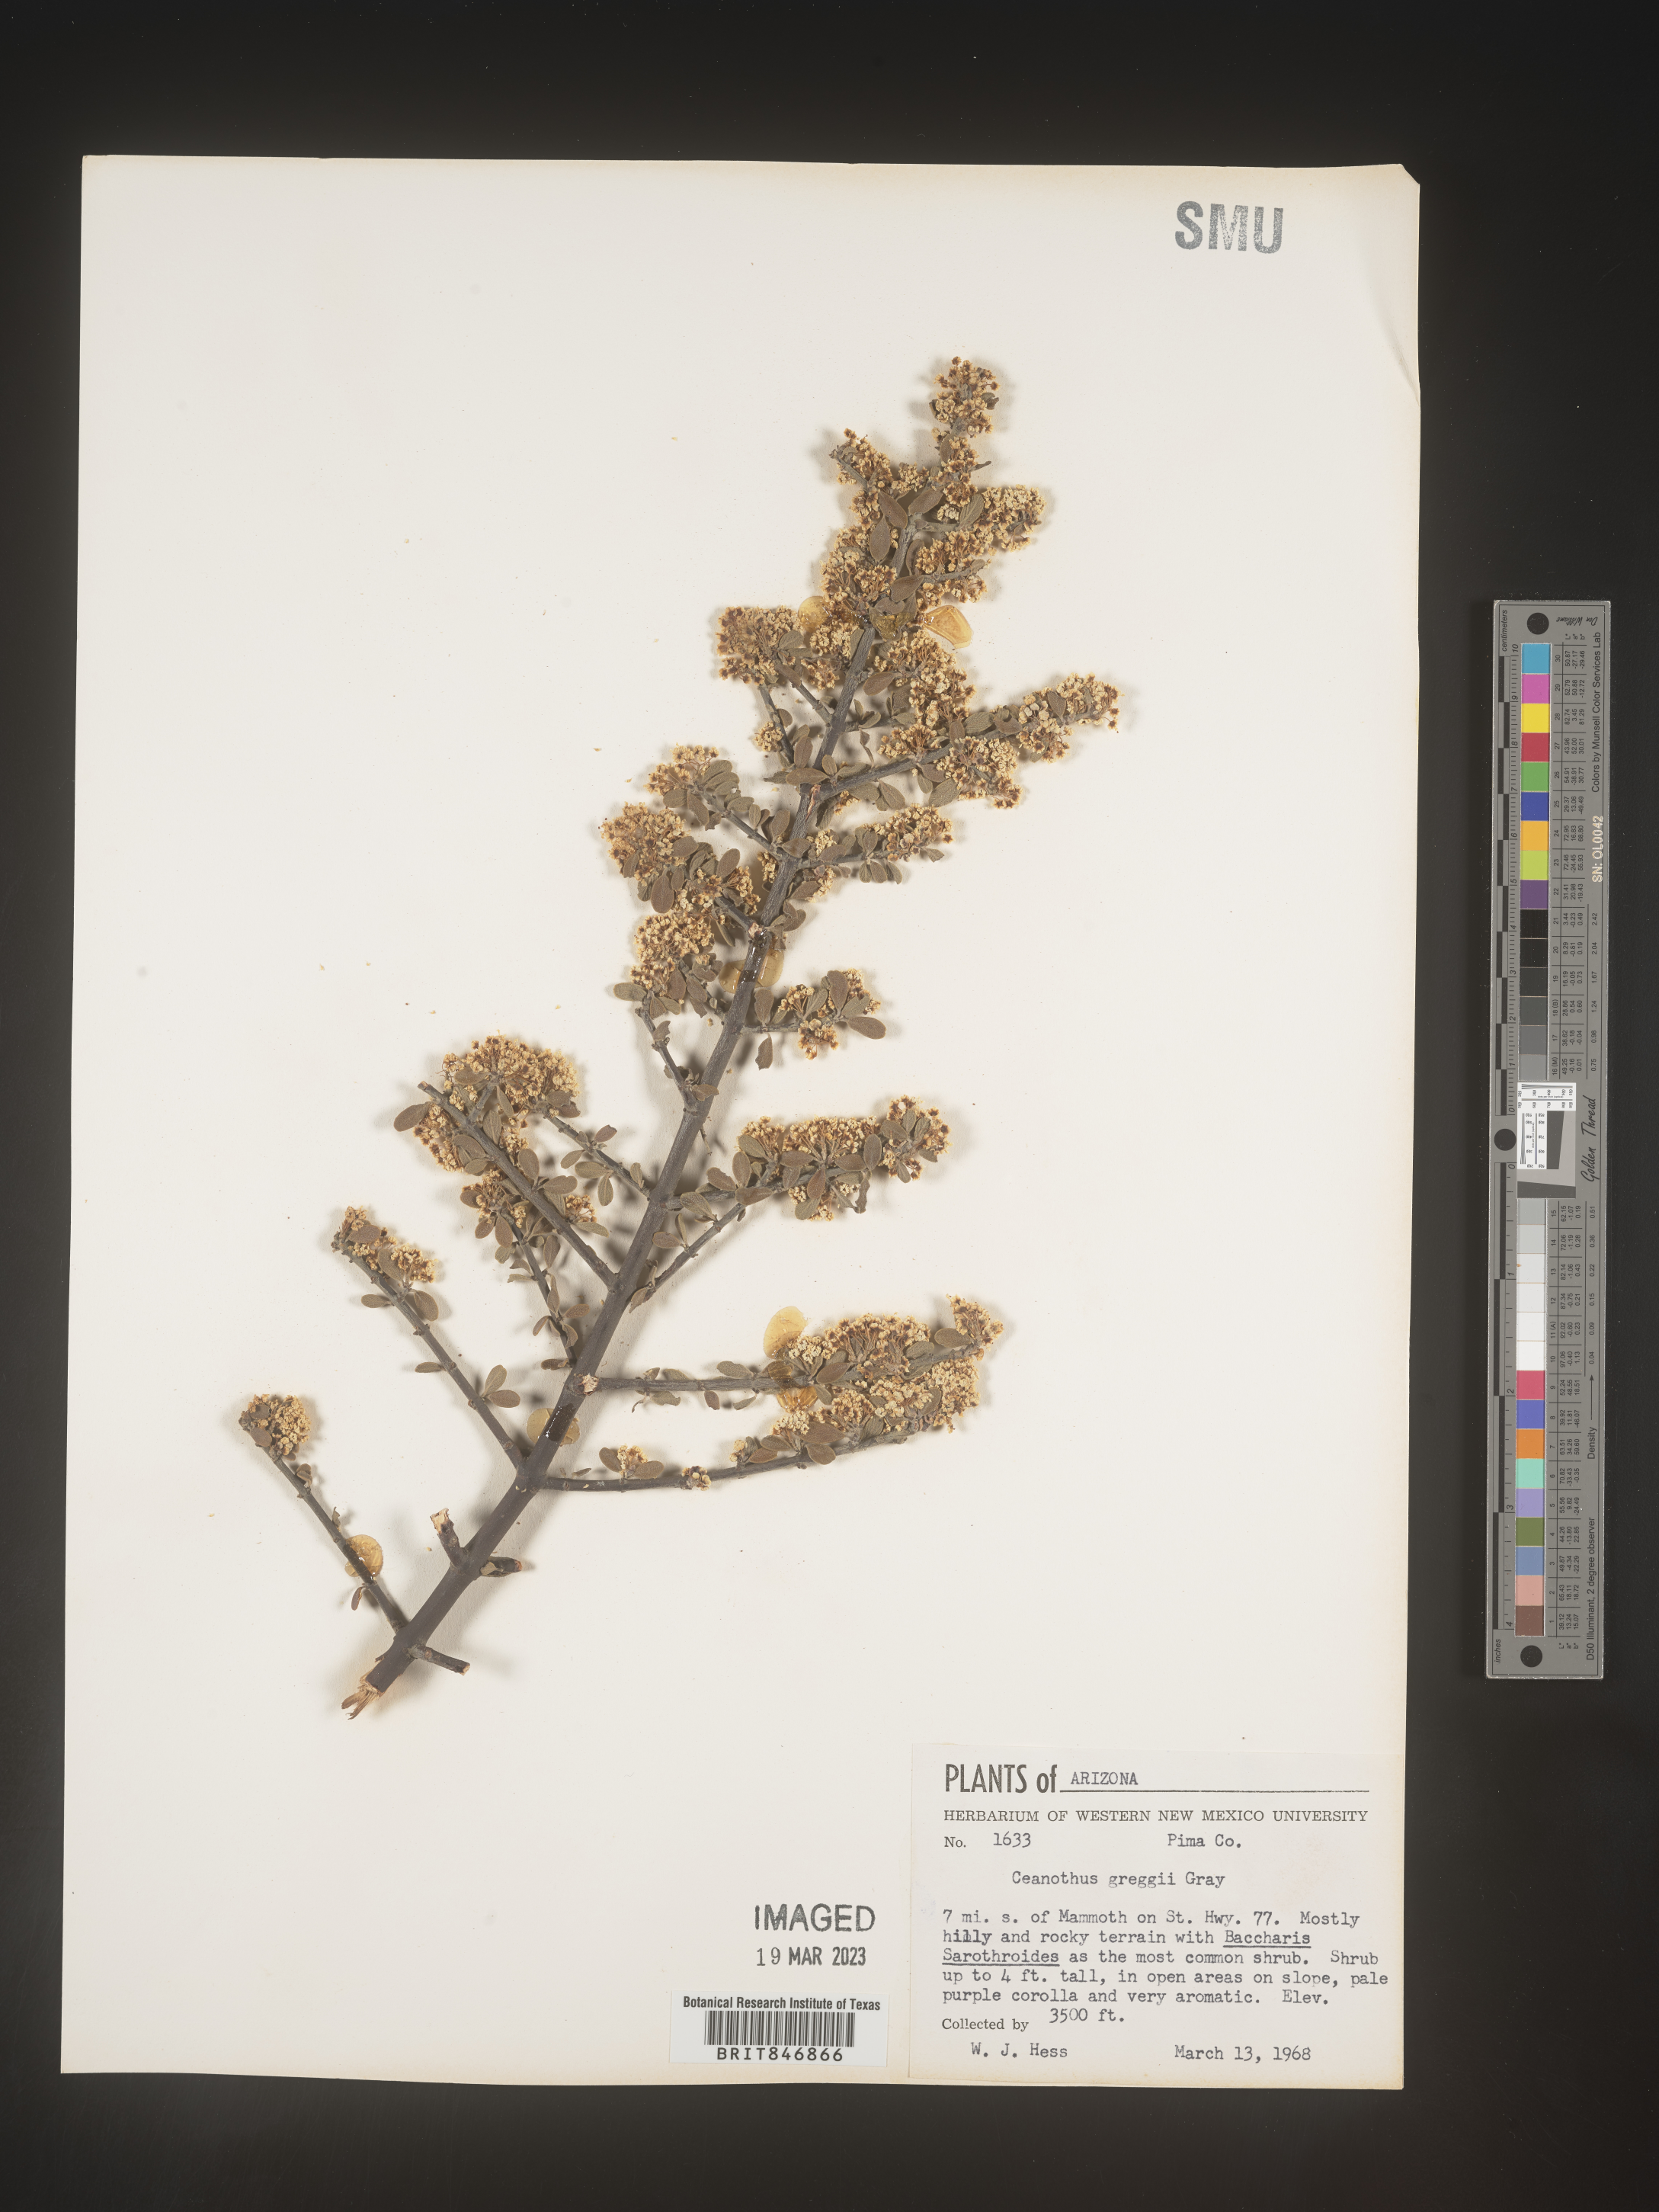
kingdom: Plantae
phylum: Tracheophyta
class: Magnoliopsida
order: Rosales
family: Rhamnaceae
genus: Ceanothus
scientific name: Ceanothus
